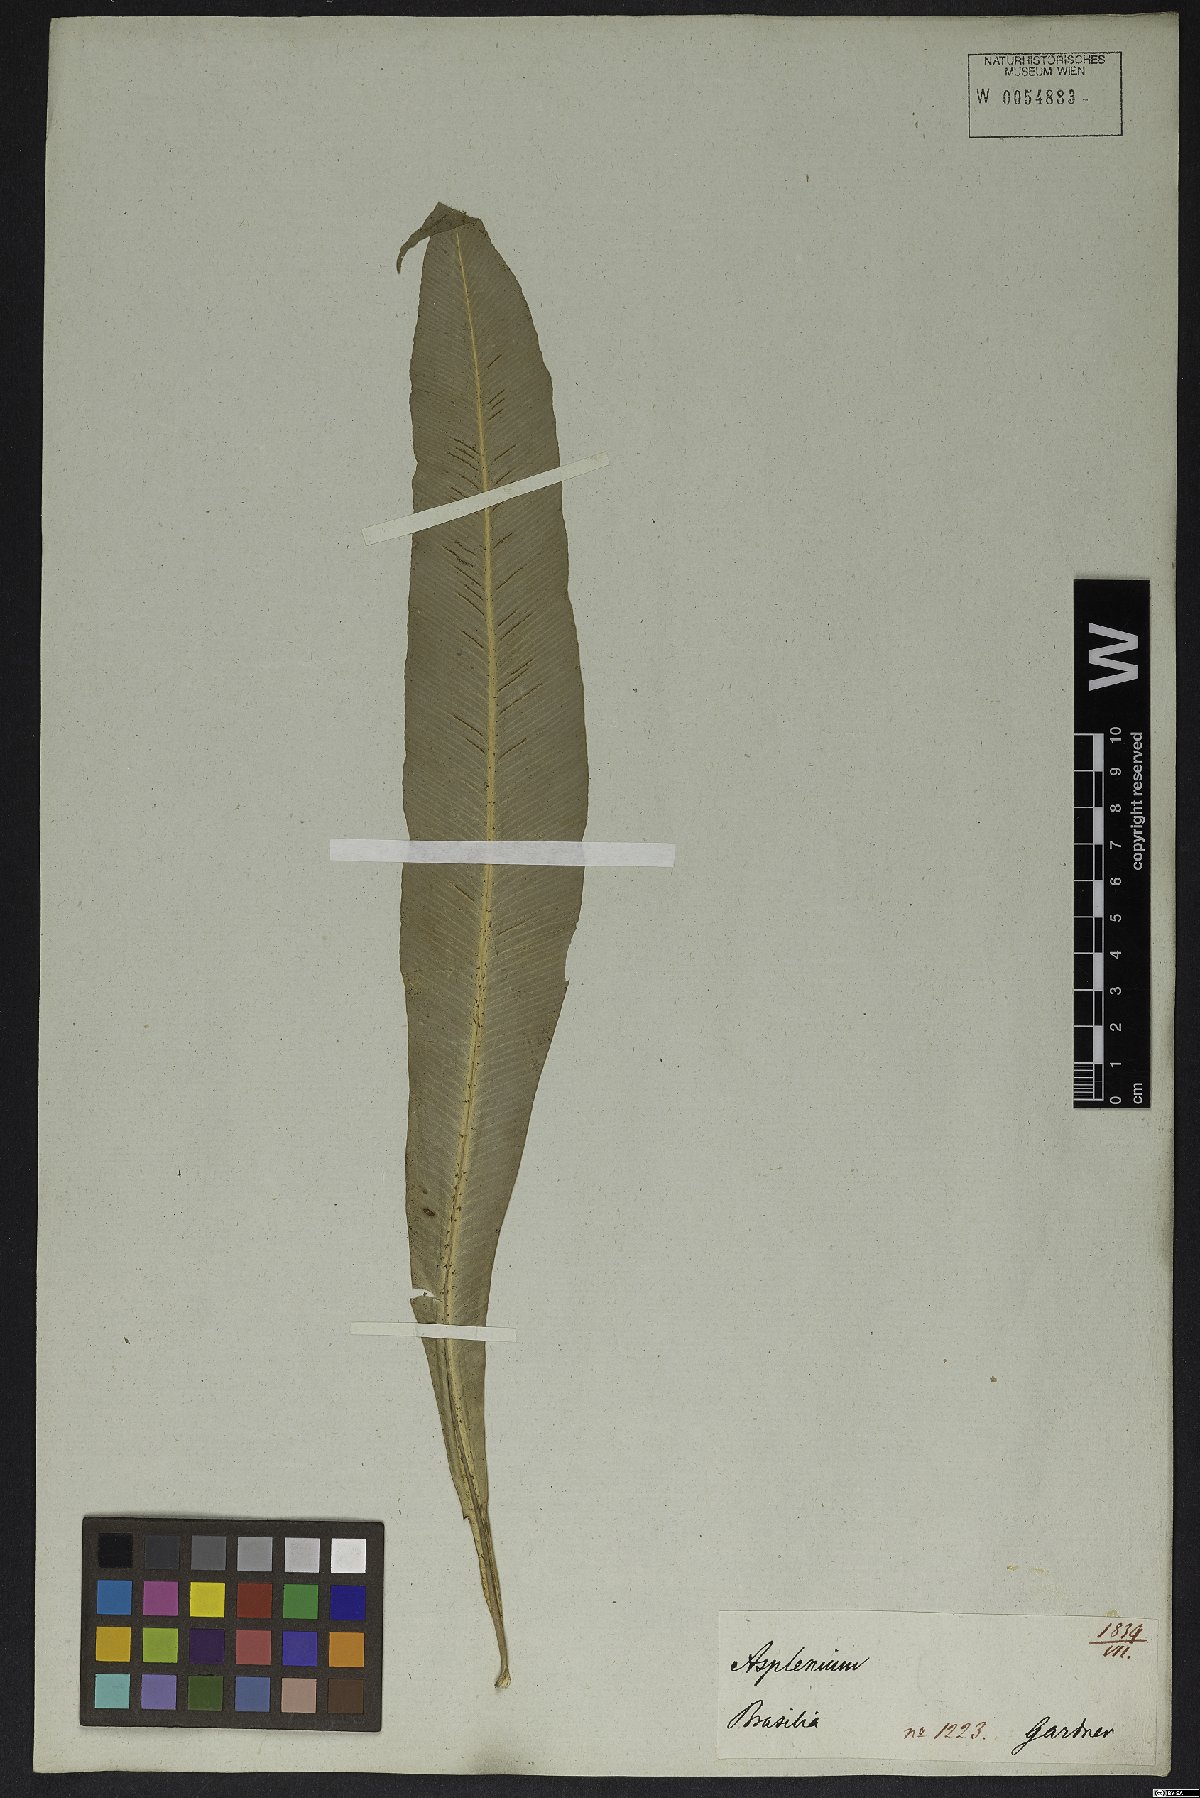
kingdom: Plantae
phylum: Tracheophyta
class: Polypodiopsida
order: Polypodiales
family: Aspleniaceae
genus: Asplenium
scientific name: Asplenium serratum
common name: Wild birdnest fern
